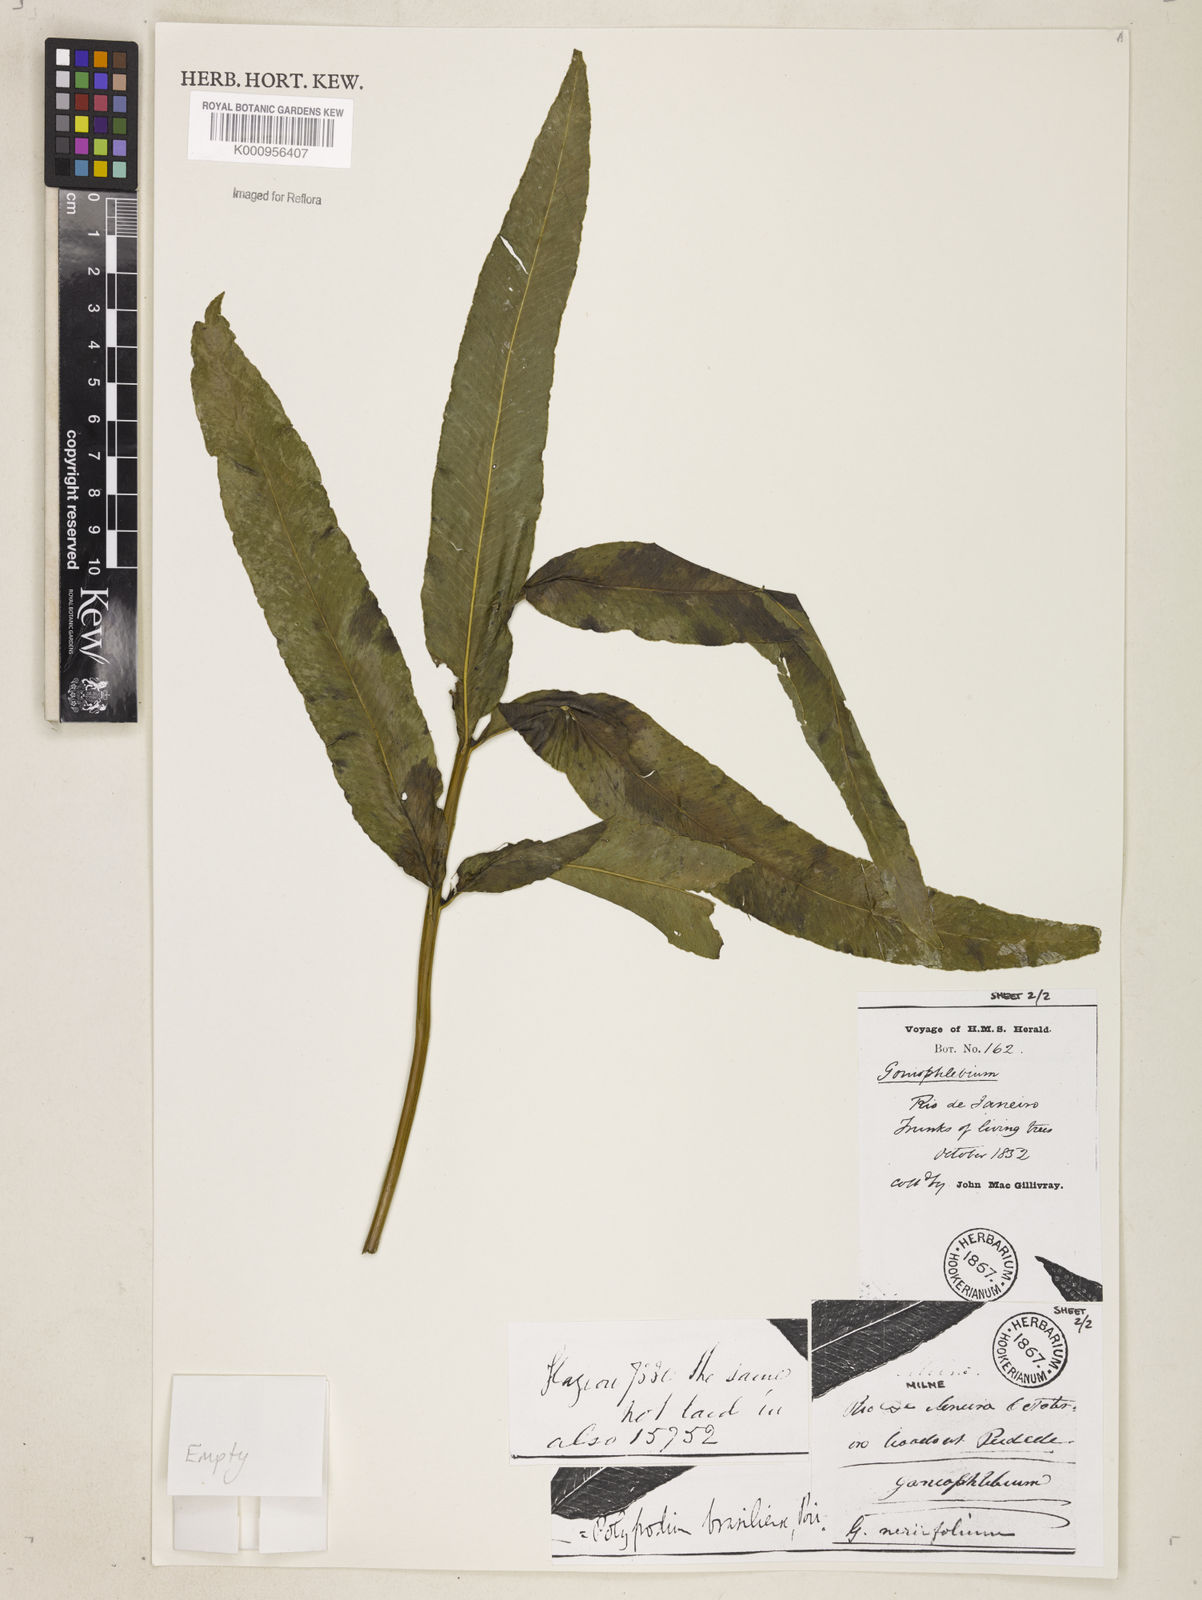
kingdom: Plantae
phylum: Tracheophyta
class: Polypodiopsida
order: Polypodiales
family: Polypodiaceae
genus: Serpocaulon
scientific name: Serpocaulon triseriale
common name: Angle-vein fern
